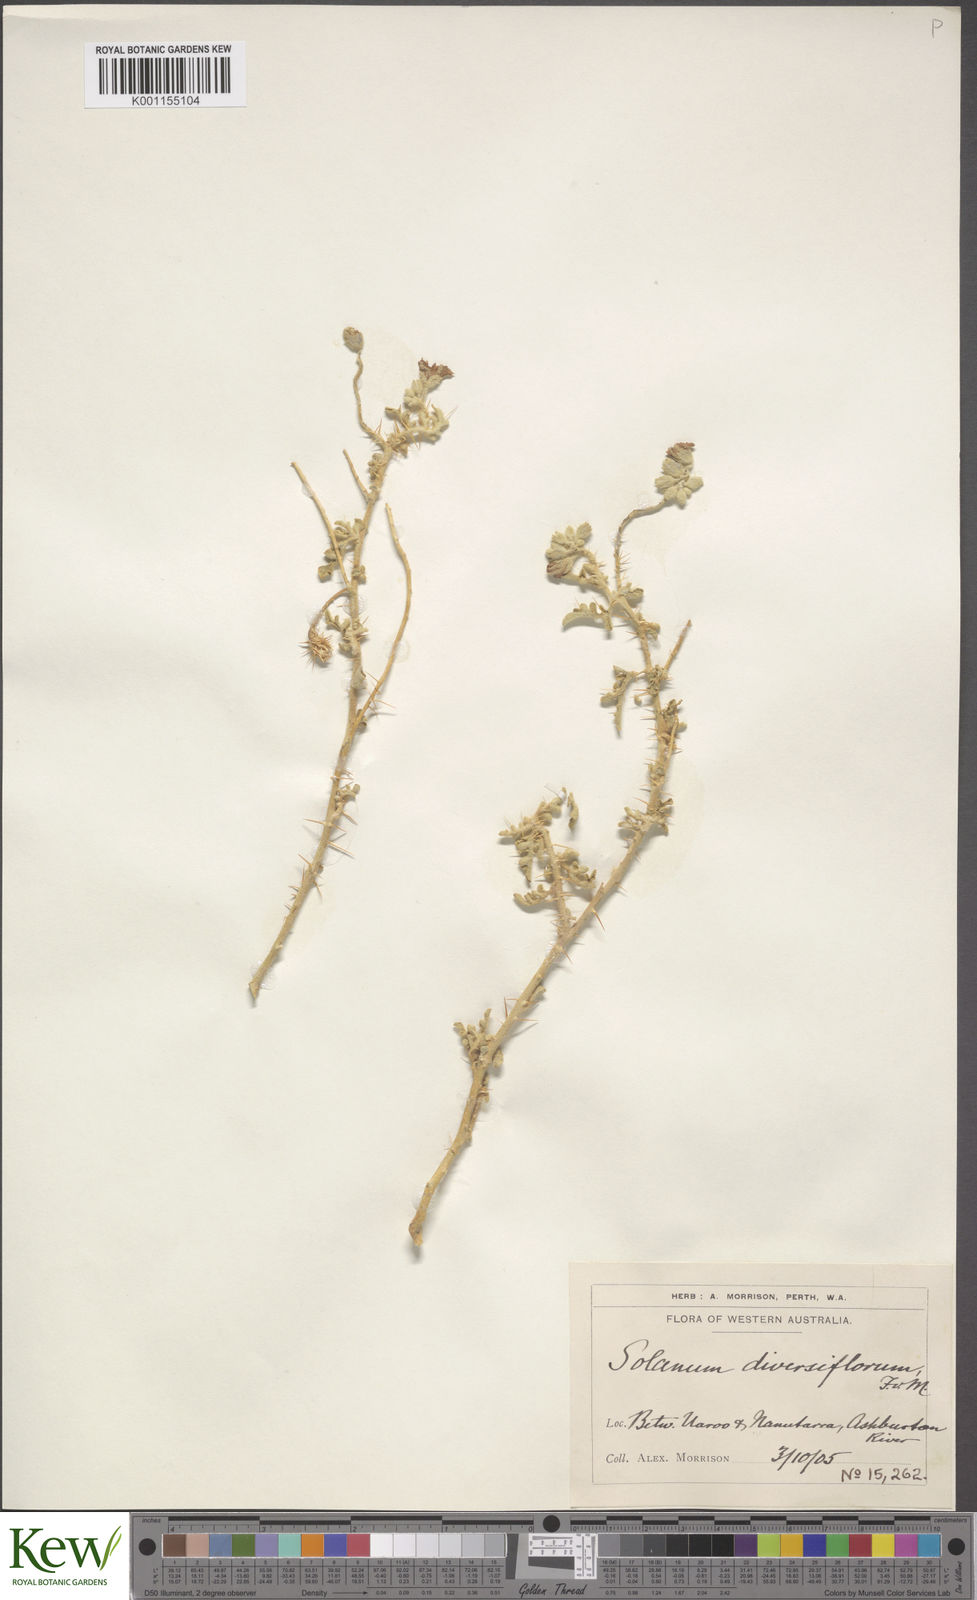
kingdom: Plantae
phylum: Tracheophyta
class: Magnoliopsida
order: Solanales
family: Solanaceae
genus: Solanum
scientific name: Solanum diversiflorum
